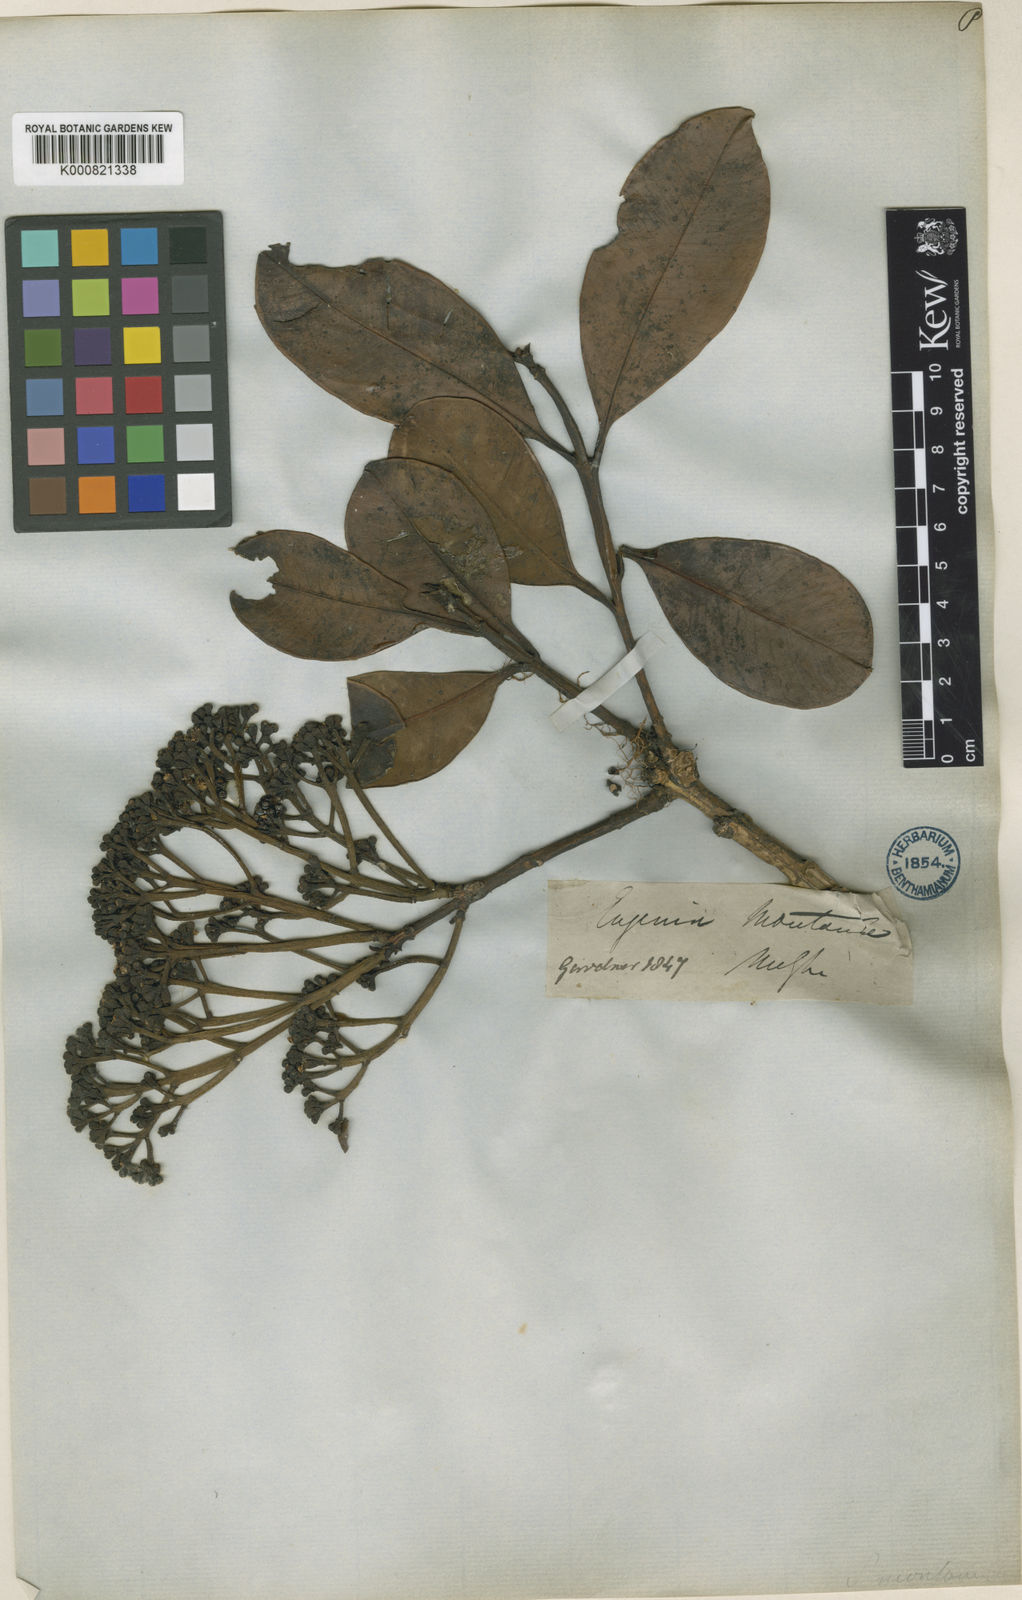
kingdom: Plantae
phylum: Tracheophyta
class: Magnoliopsida
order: Myrtales
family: Myrtaceae
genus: Syzygium
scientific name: Syzygium grande
